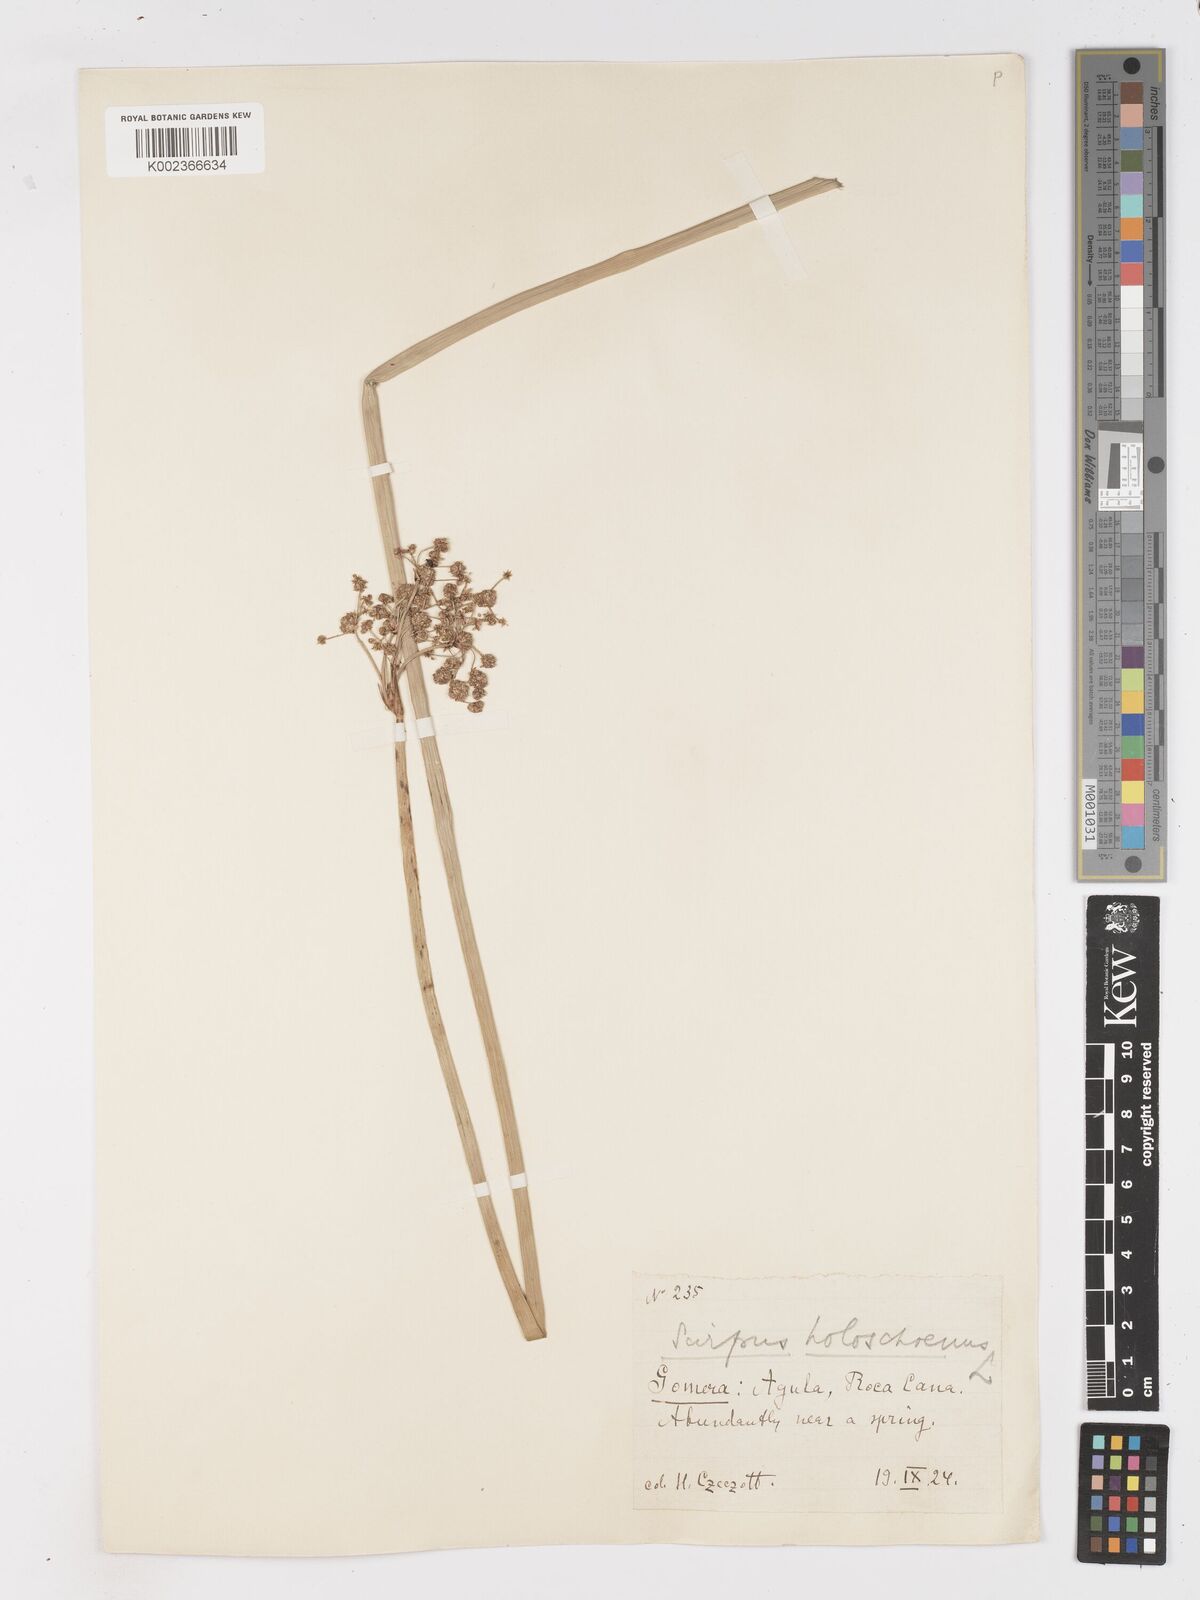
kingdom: Plantae
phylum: Tracheophyta
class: Liliopsida
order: Poales
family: Cyperaceae
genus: Scirpoides
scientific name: Scirpoides holoschoenus
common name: Round-headed club-rush
